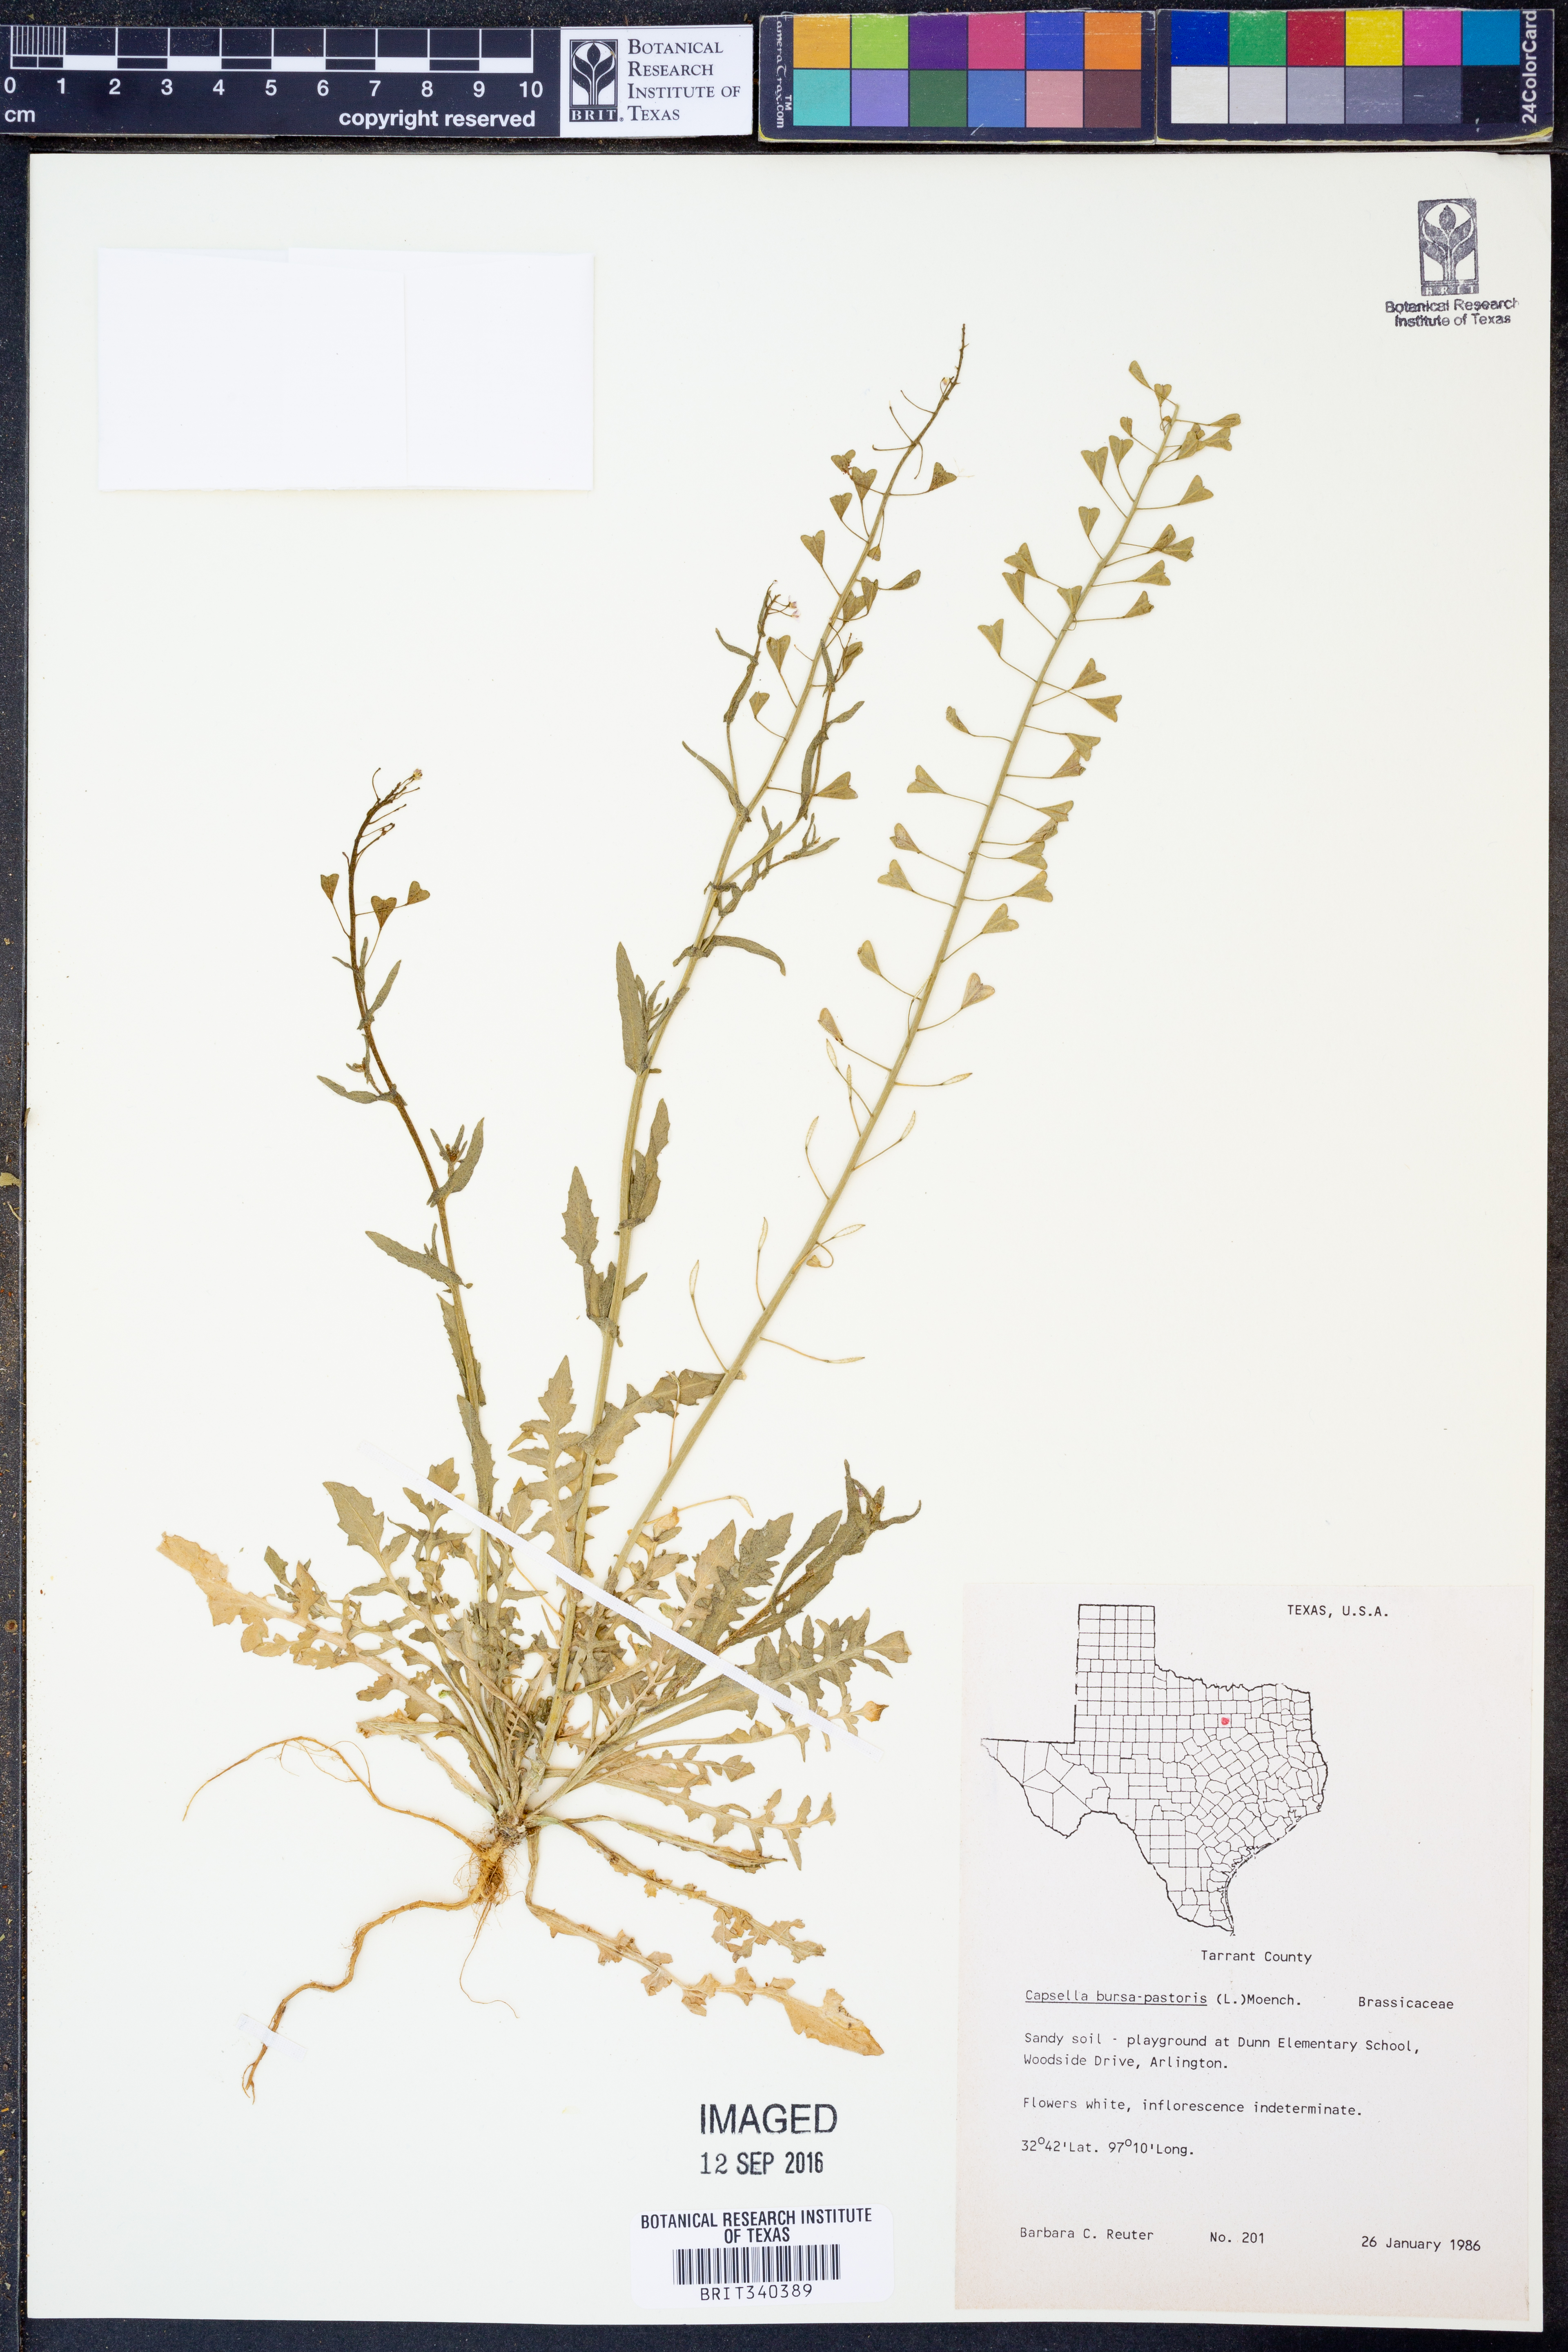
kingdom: Plantae
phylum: Tracheophyta
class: Magnoliopsida
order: Brassicales
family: Brassicaceae
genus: Capsella
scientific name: Capsella bursa-pastoris
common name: Shepherd's purse
